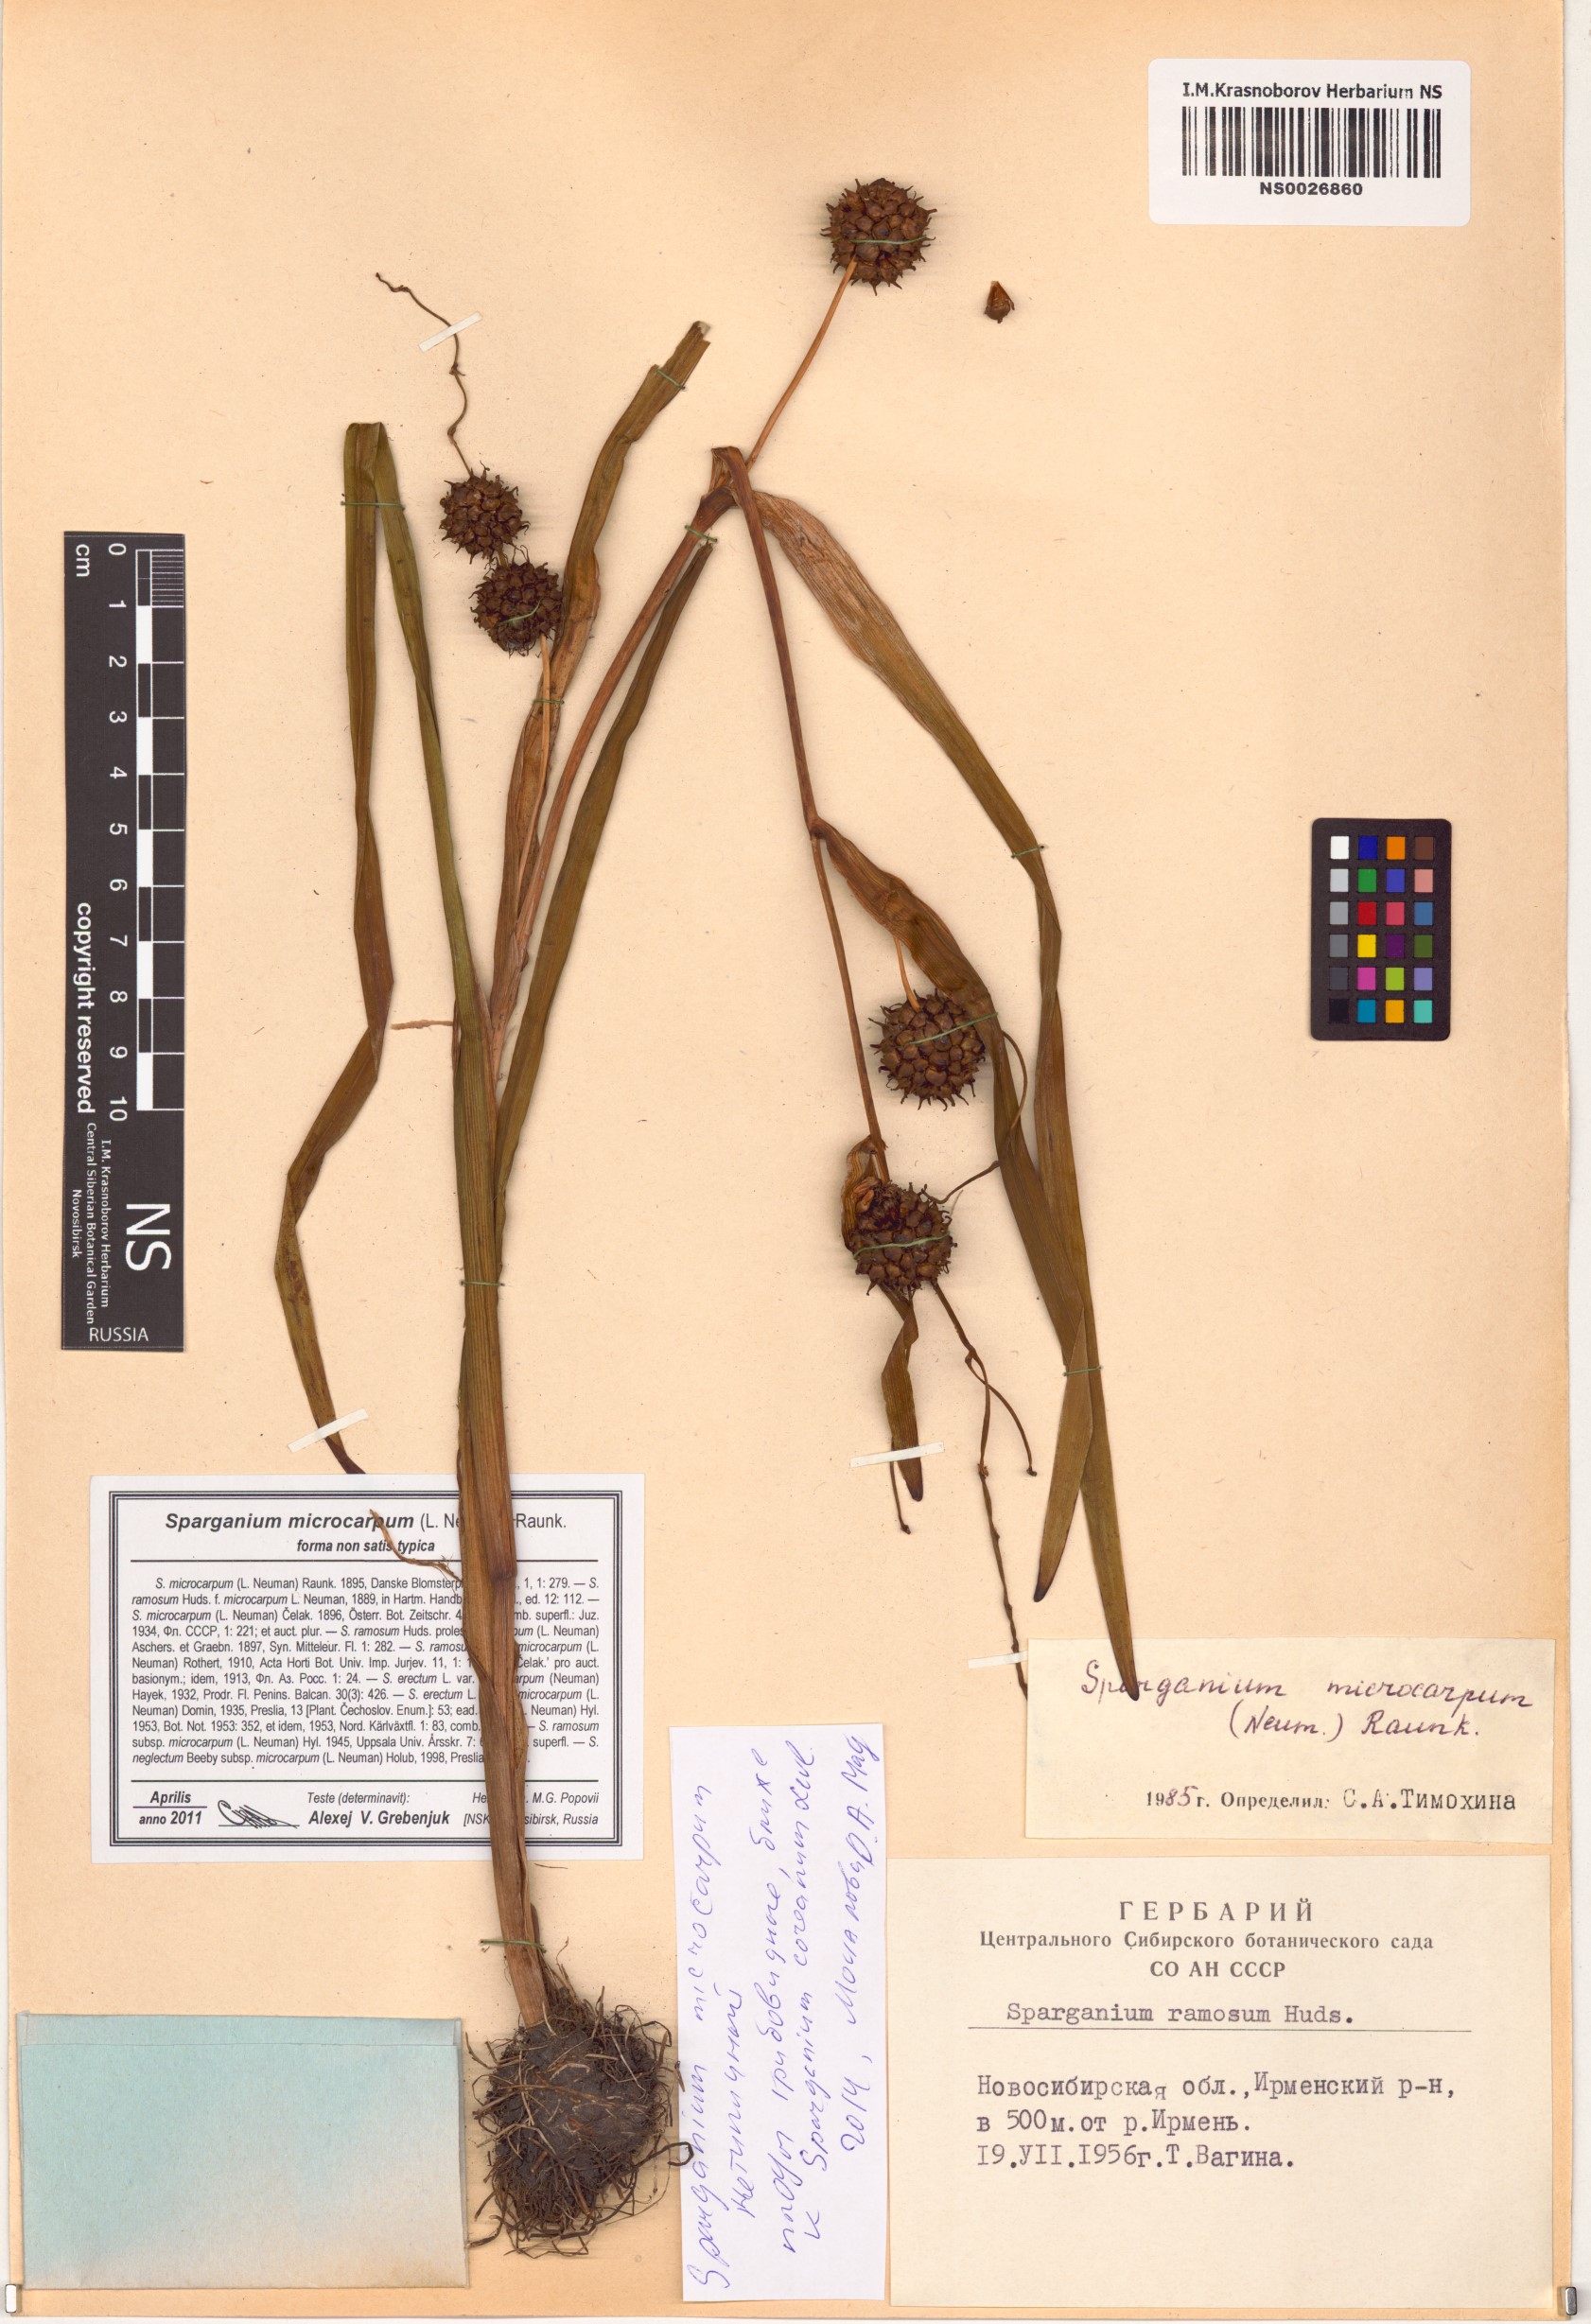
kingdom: Plantae
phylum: Tracheophyta
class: Liliopsida
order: Poales
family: Typhaceae
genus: Sparganium
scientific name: Sparganium erectum
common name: Branched bur-reed
